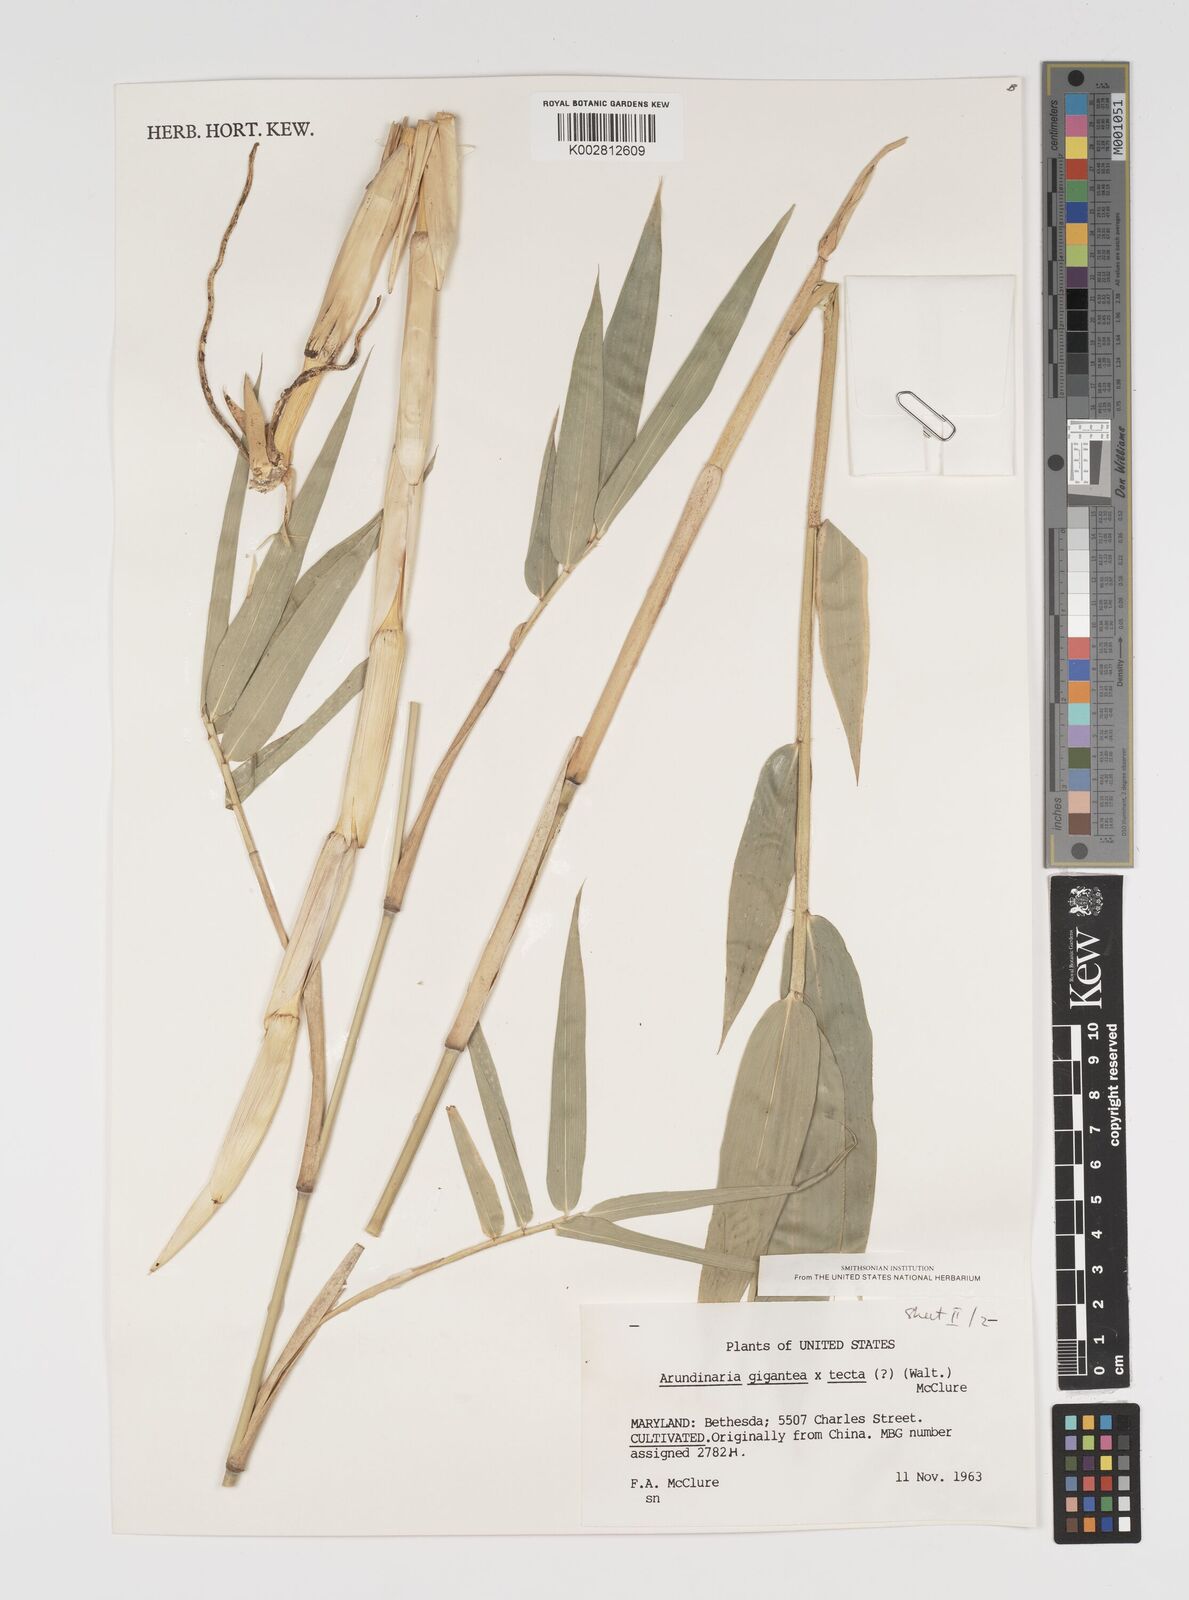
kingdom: Plantae
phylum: Tracheophyta
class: Liliopsida
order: Poales
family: Poaceae
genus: Arundinaria
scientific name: Arundinaria
